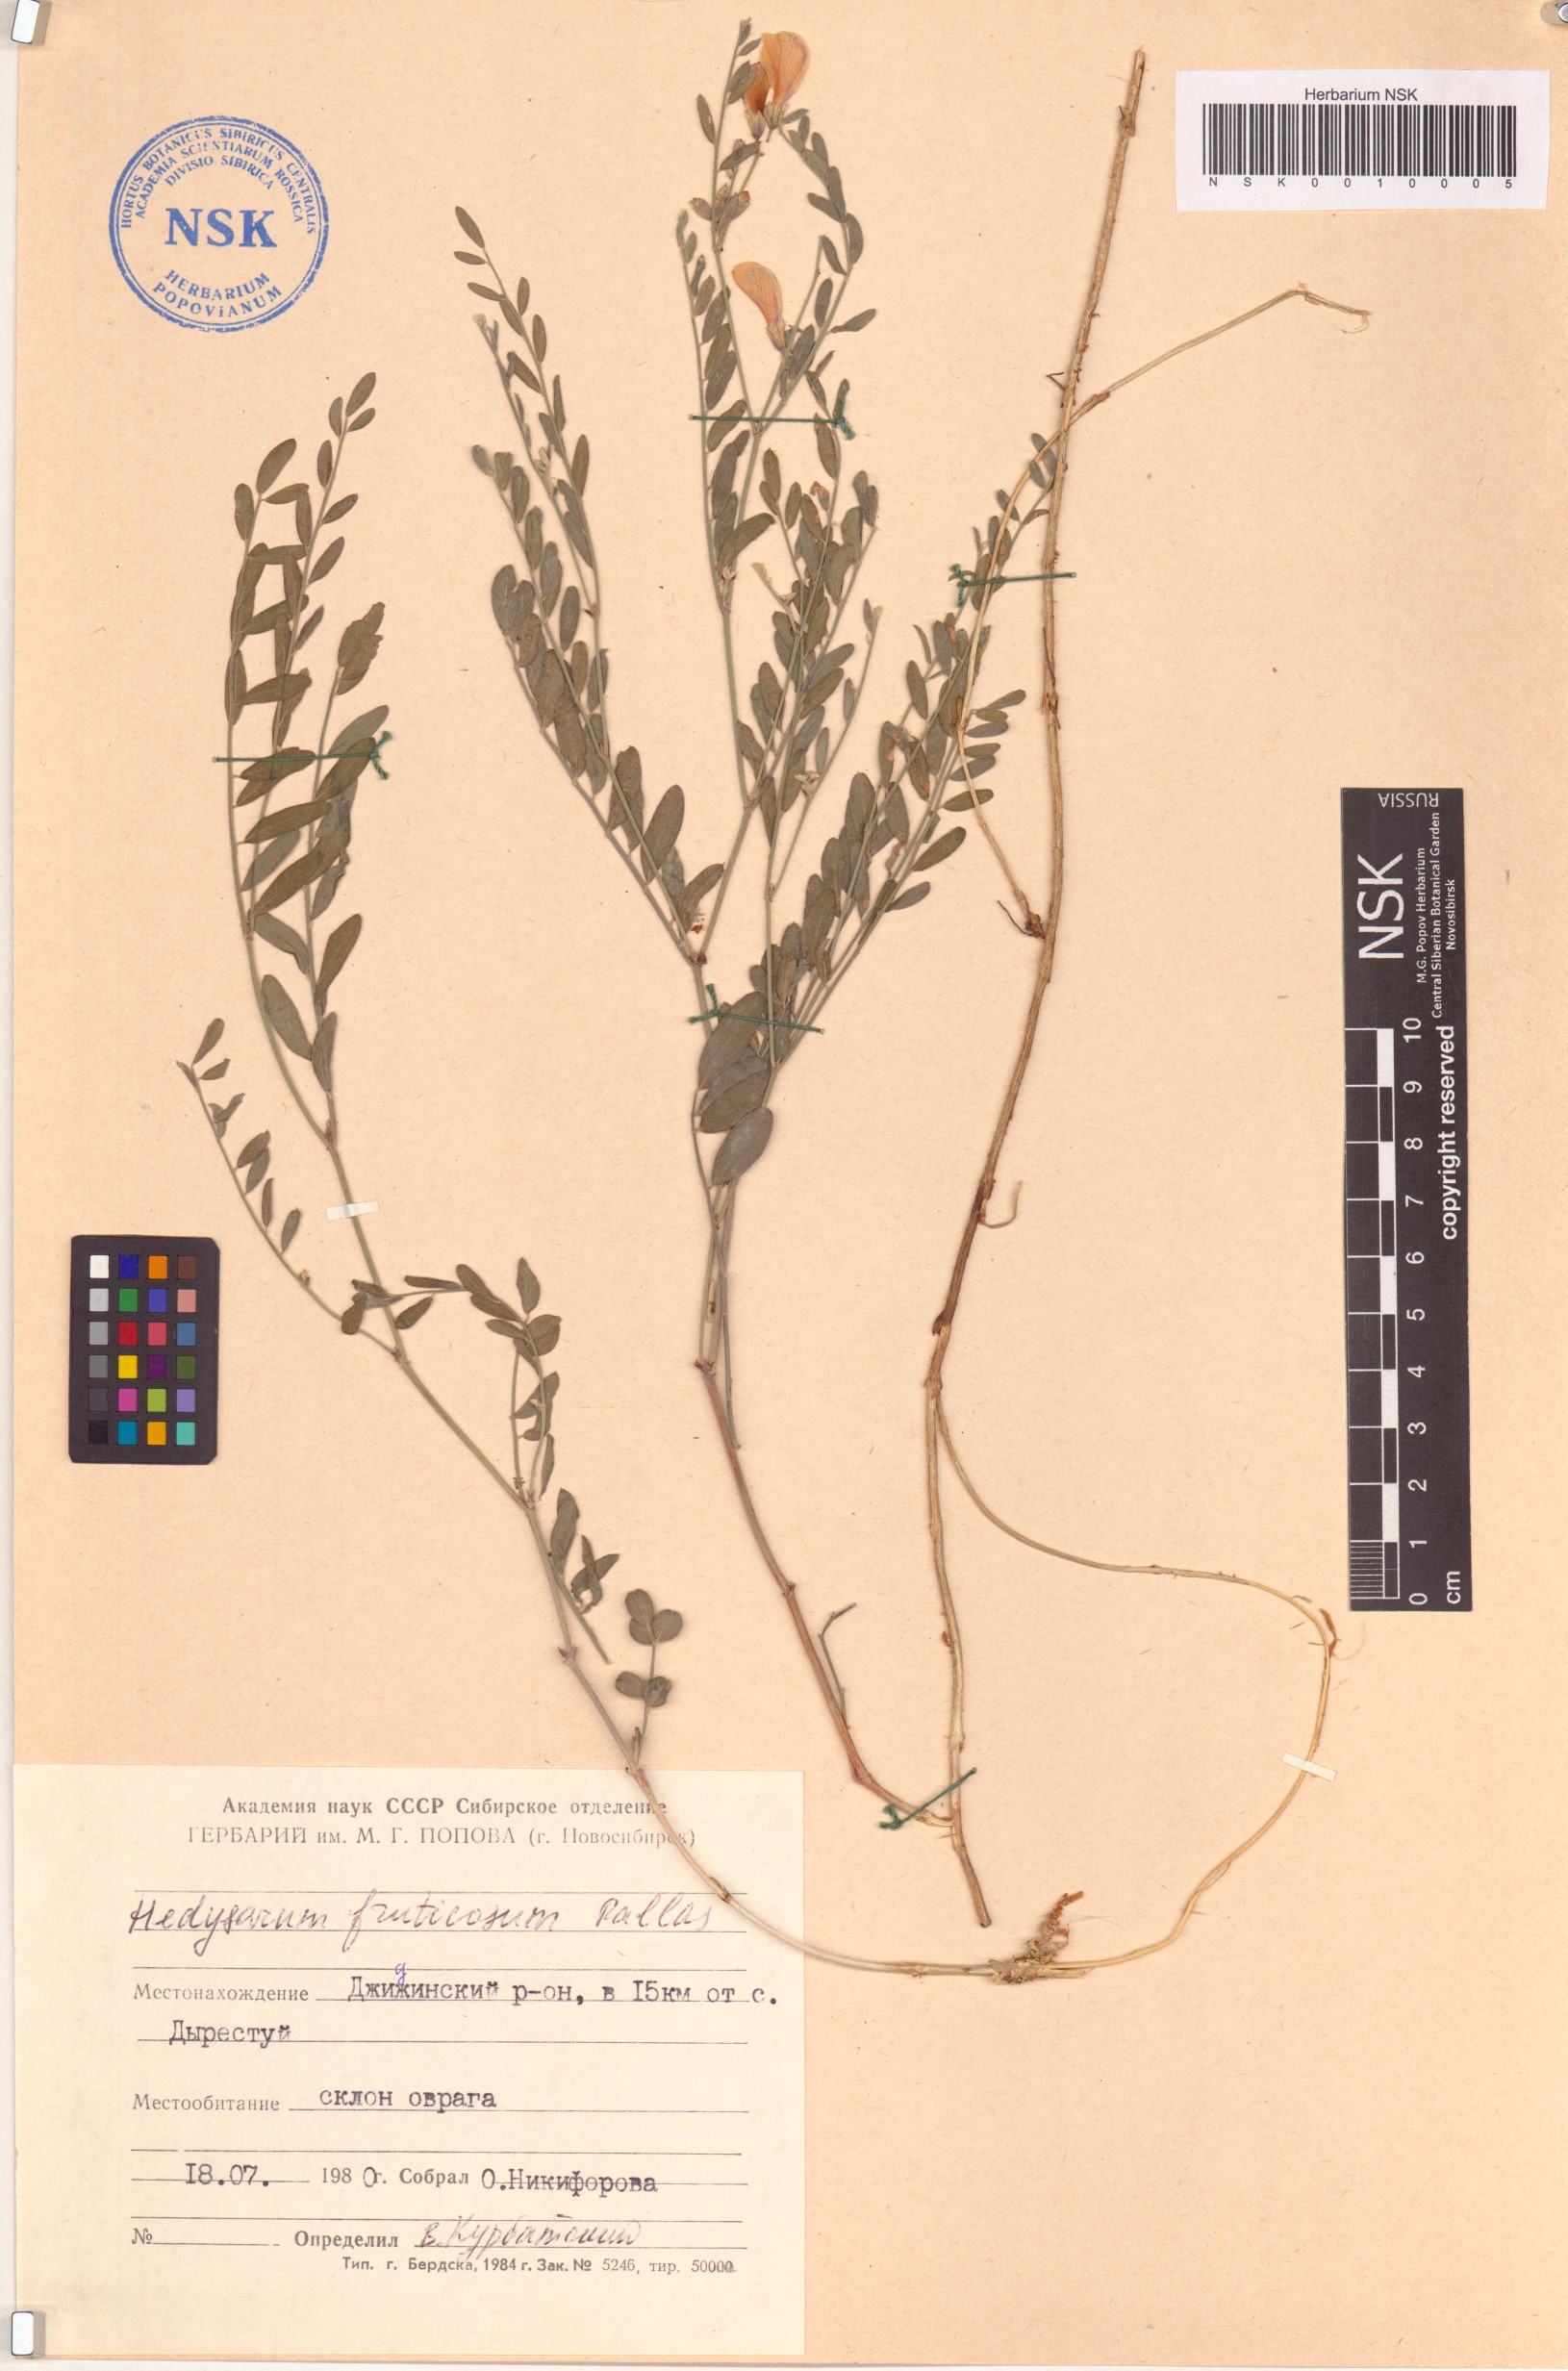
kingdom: Plantae
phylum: Tracheophyta
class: Magnoliopsida
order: Fabales
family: Fabaceae
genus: Corethrodendron
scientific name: Corethrodendron fruticosum
